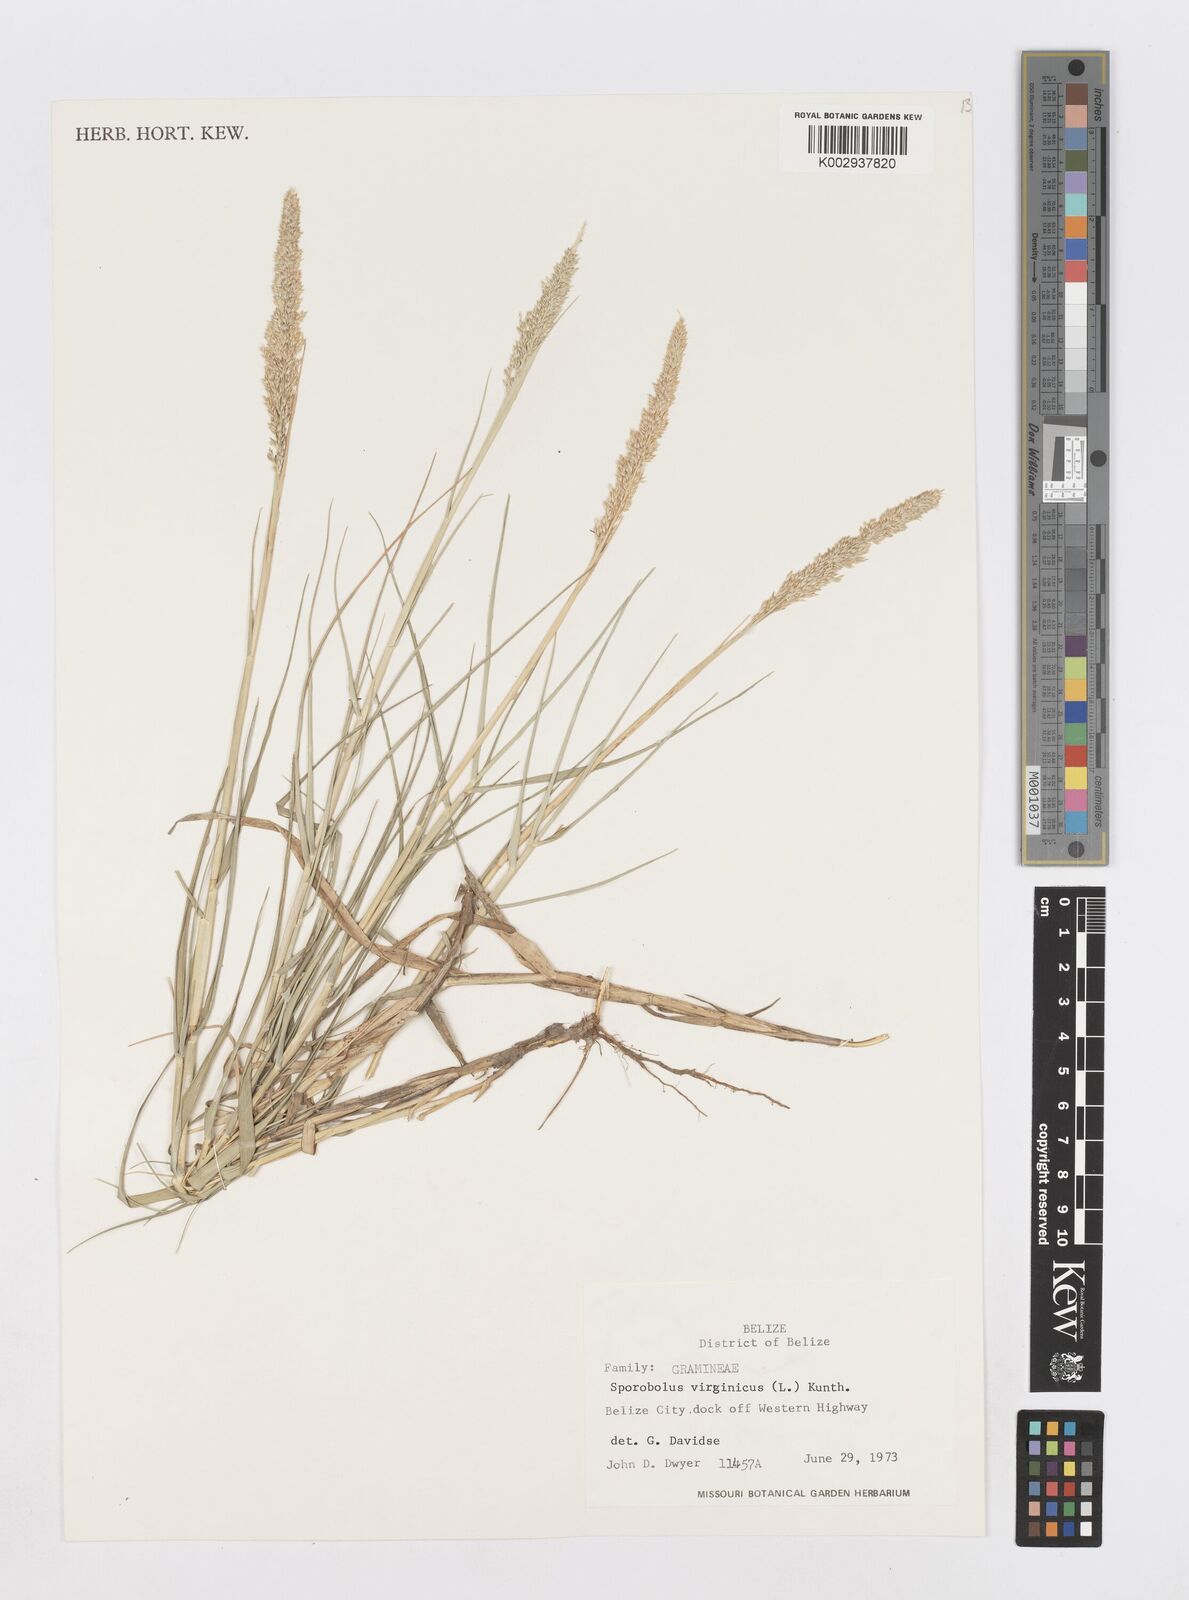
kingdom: Plantae
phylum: Tracheophyta
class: Liliopsida
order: Poales
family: Poaceae
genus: Sporobolus
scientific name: Sporobolus virginicus
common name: Beach dropseed
